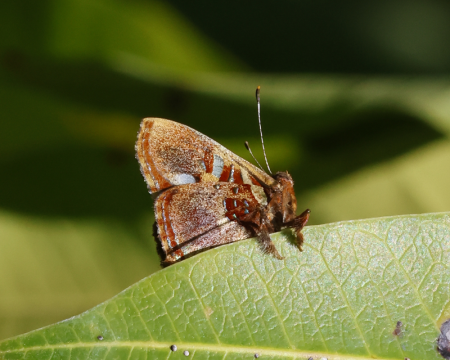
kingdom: Animalia
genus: Anteros
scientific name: Anteros carausius
